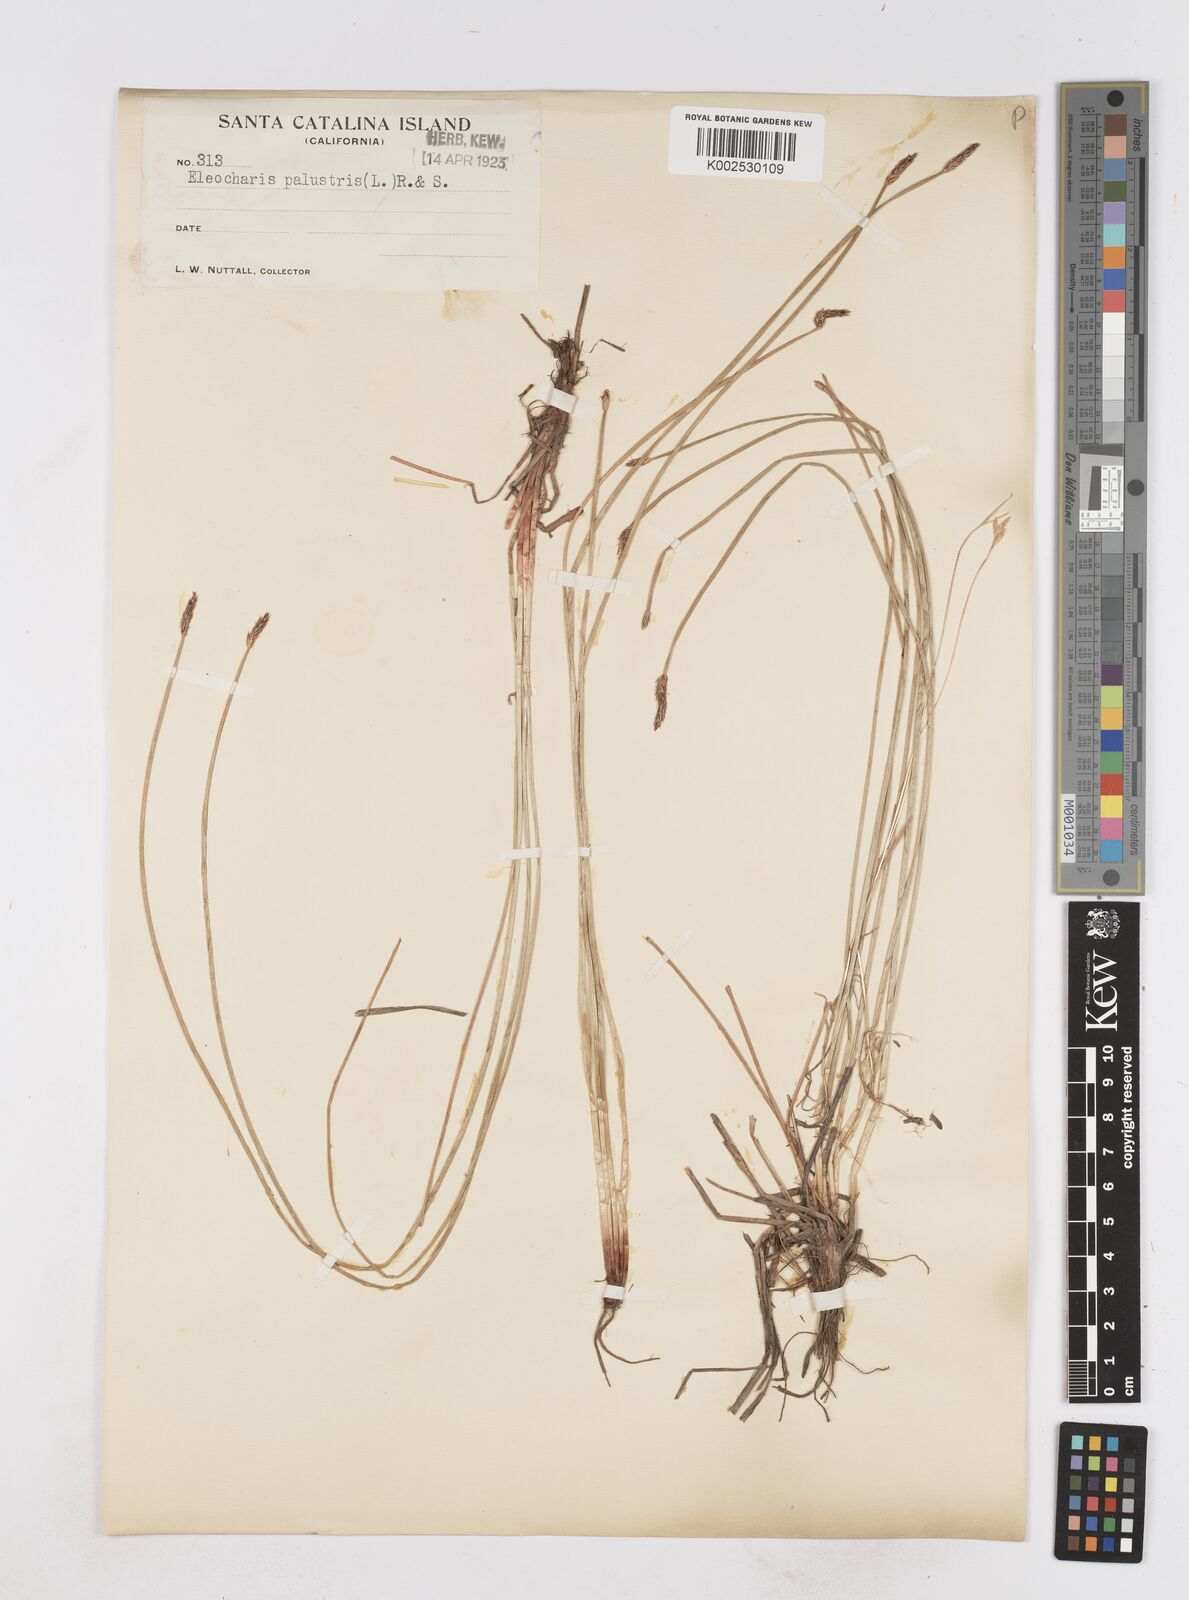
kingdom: Plantae
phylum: Tracheophyta
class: Liliopsida
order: Poales
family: Cyperaceae
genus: Eleocharis
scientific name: Eleocharis palustris
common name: Common spike-rush
